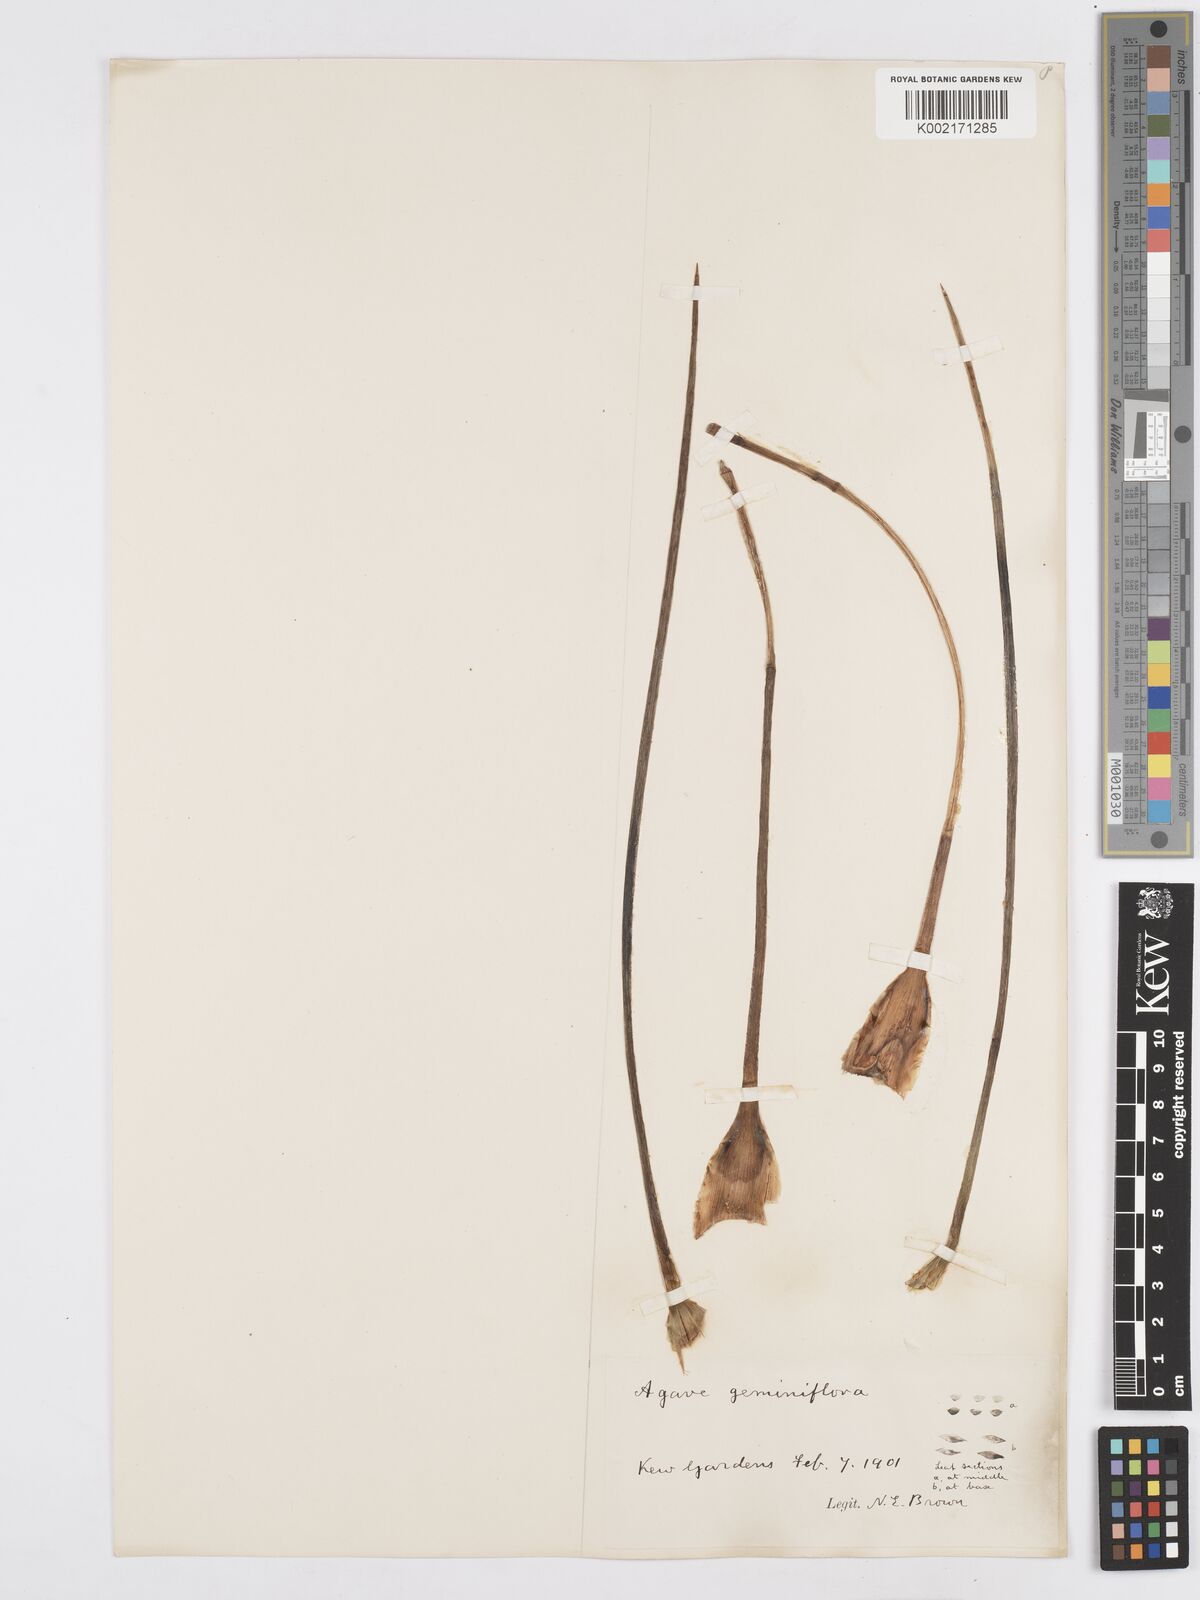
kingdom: Plantae
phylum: Tracheophyta
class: Liliopsida
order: Asparagales
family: Asparagaceae
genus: Agave
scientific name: Agave geminiflora
